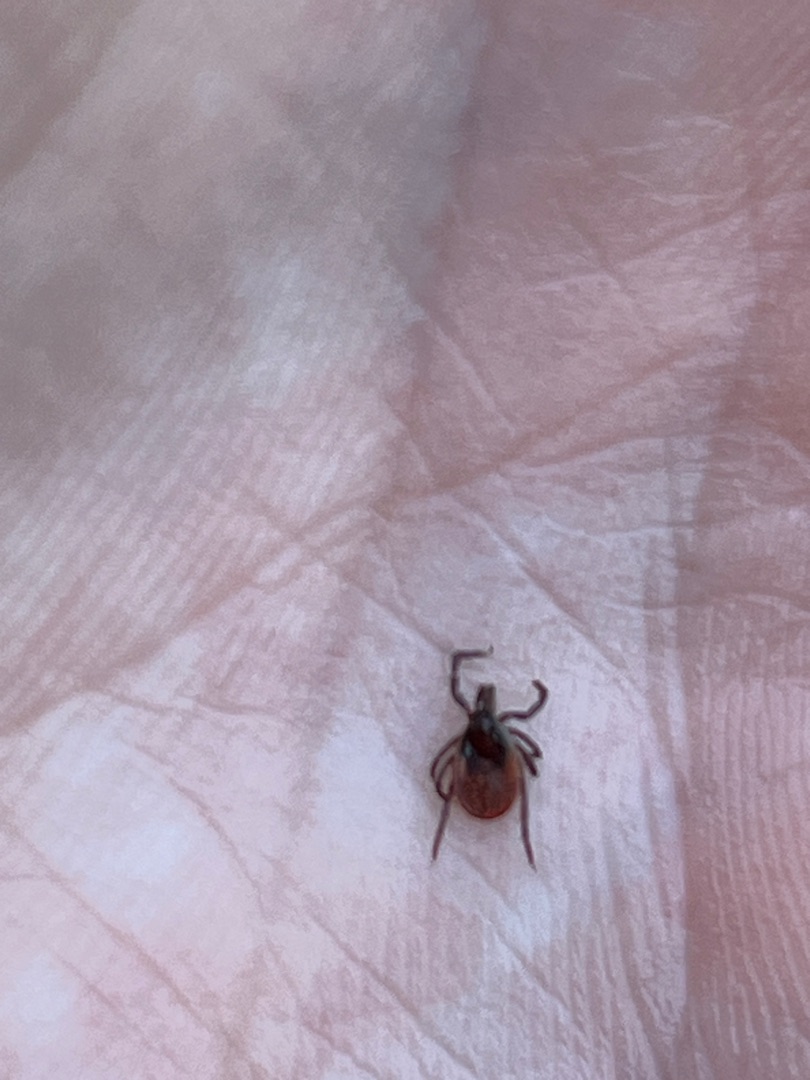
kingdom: Animalia
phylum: Arthropoda
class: Arachnida
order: Ixodida
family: Ixodidae
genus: Ixodes
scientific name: Ixodes ricinus
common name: Skovflåt
